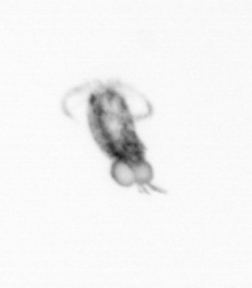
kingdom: Animalia
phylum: Arthropoda
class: Copepoda
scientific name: Copepoda
